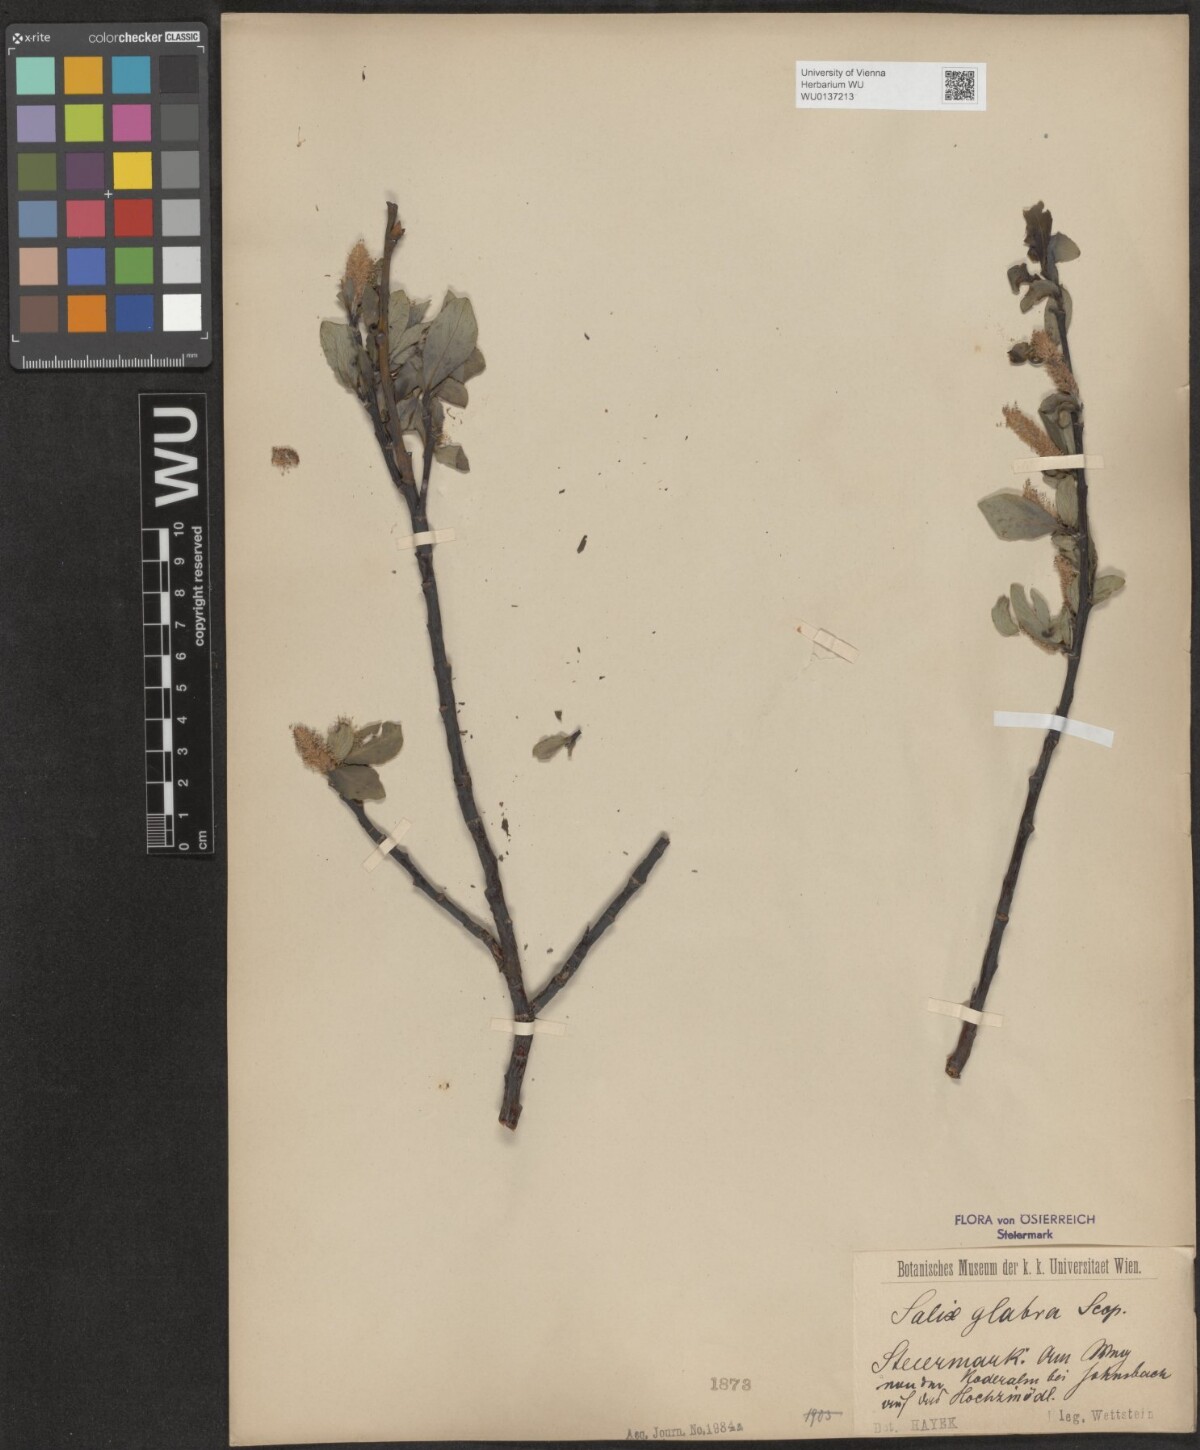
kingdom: Plantae
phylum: Tracheophyta
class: Magnoliopsida
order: Malpighiales
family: Salicaceae
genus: Salix
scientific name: Salix glabra
